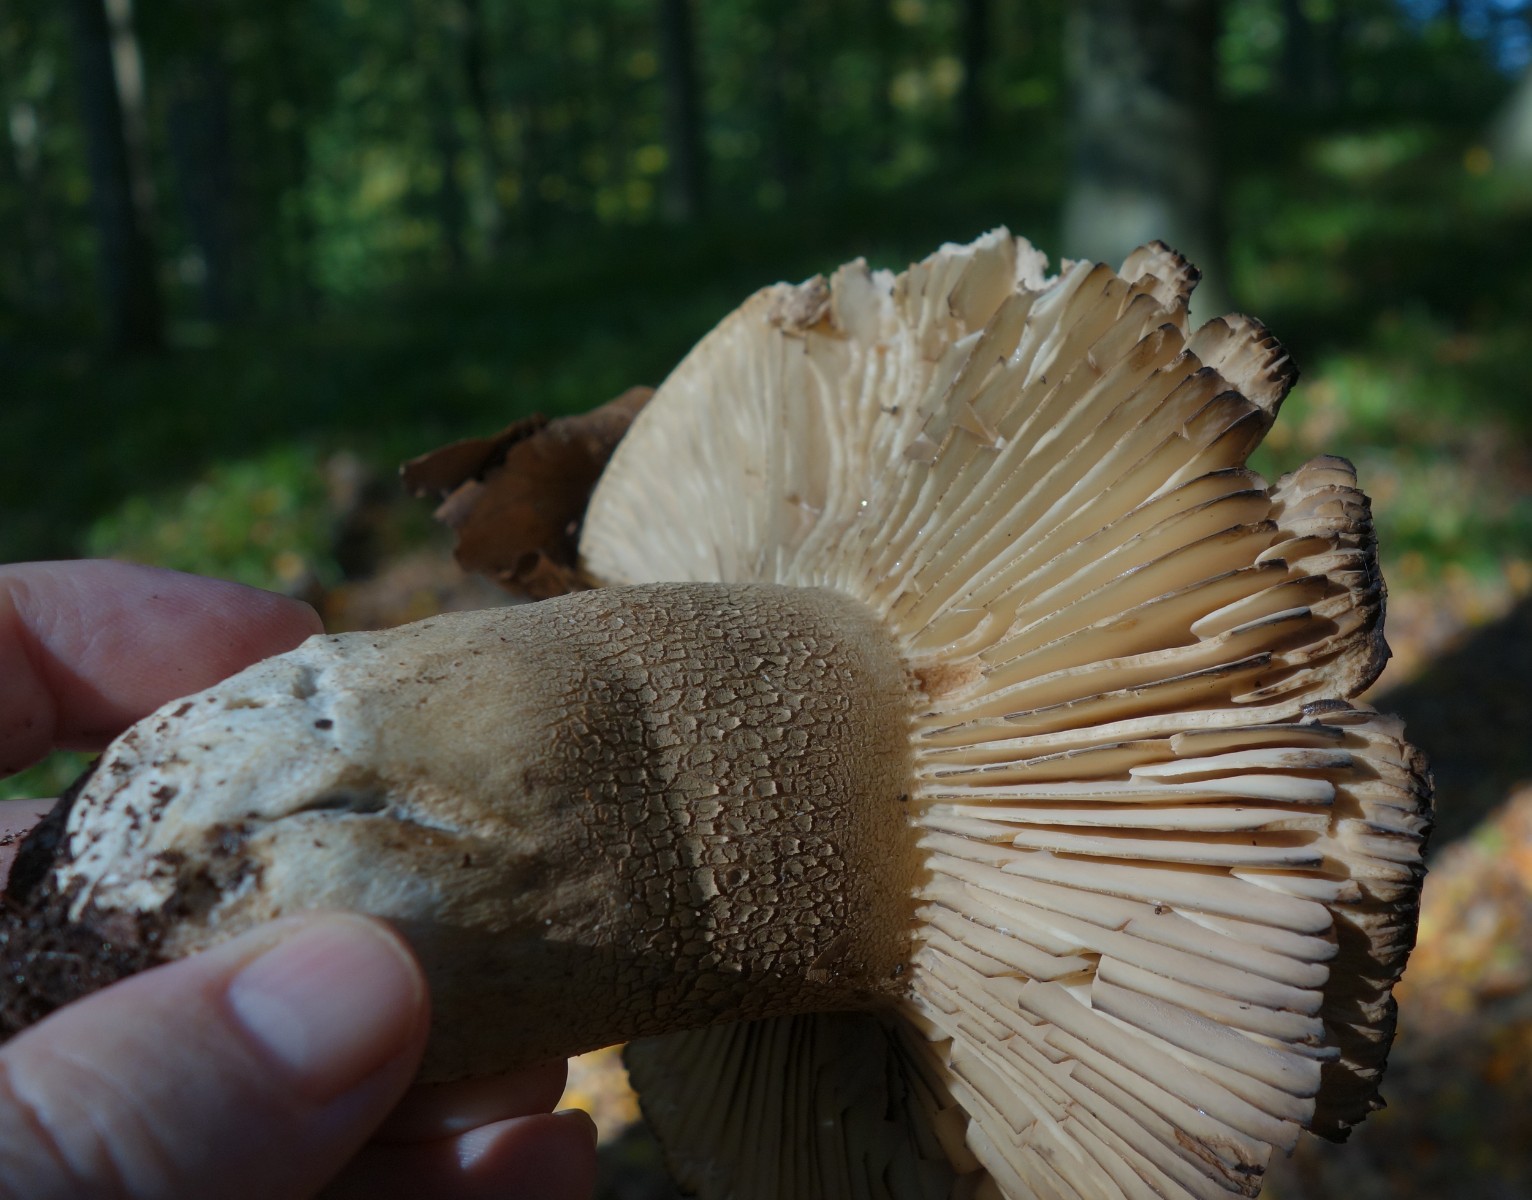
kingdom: Fungi
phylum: Basidiomycota
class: Agaricomycetes
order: Russulales
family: Russulaceae
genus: Russula
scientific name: Russula adusta
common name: sværtende skørhat
